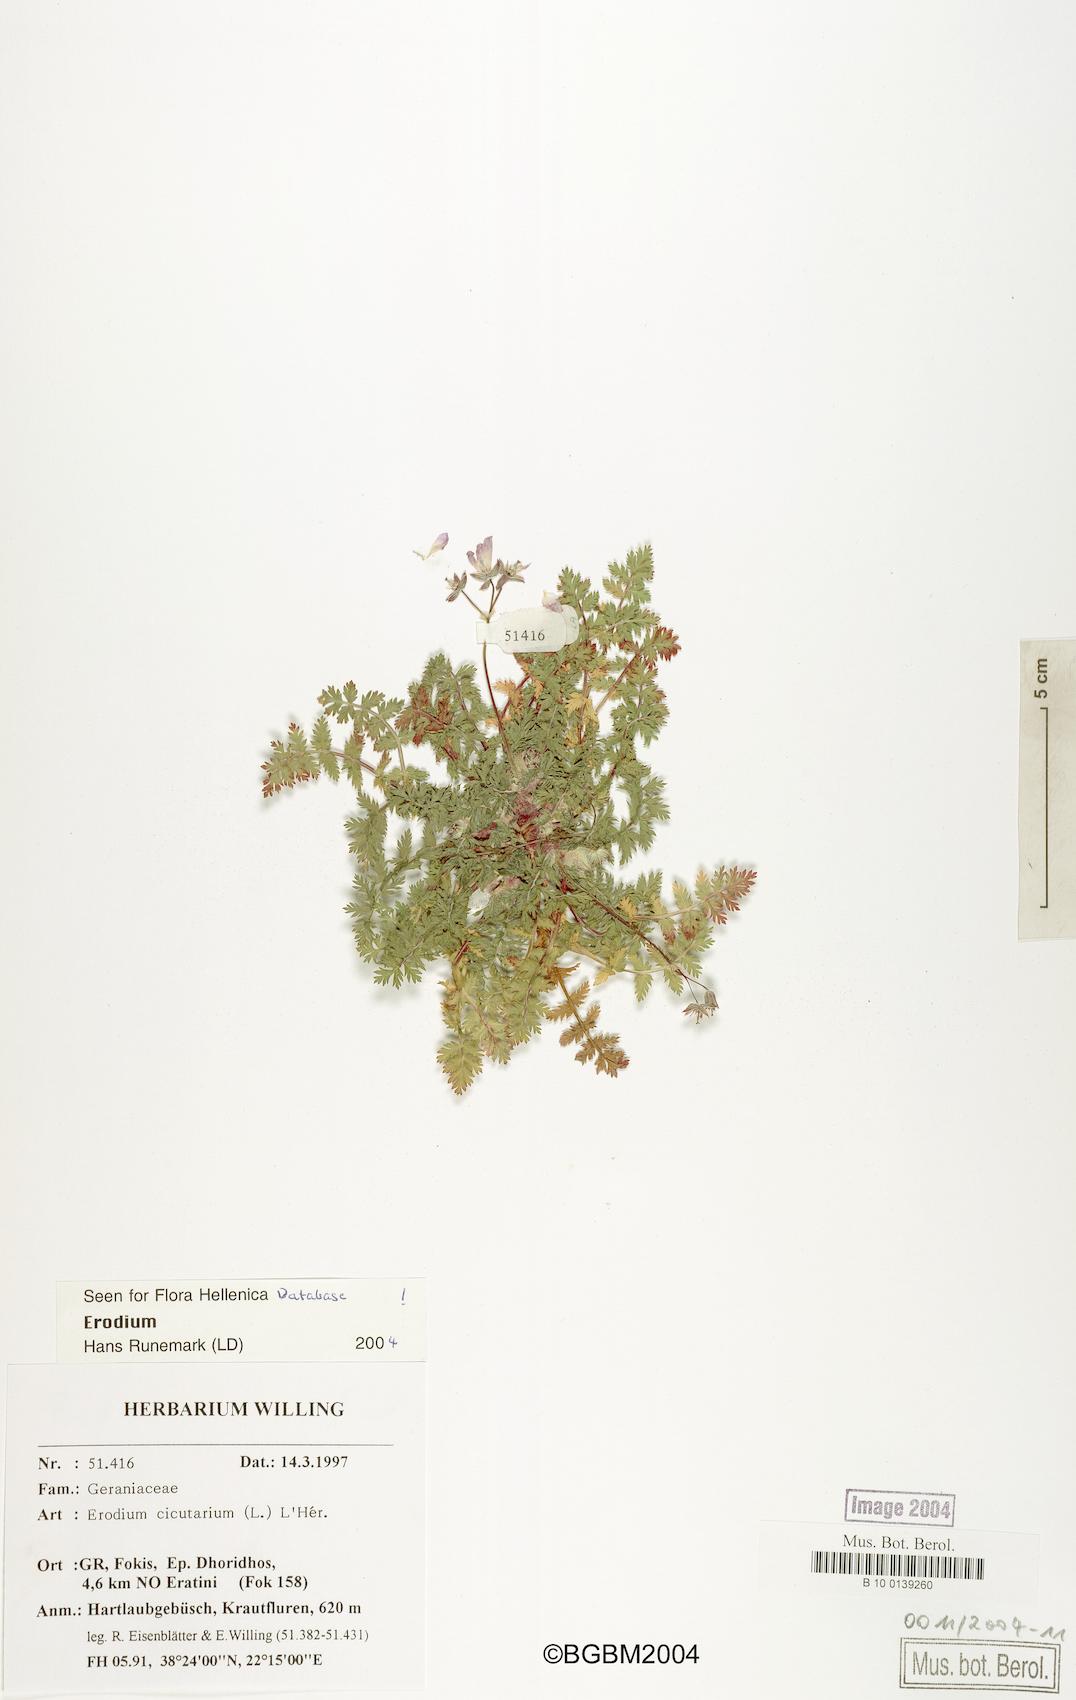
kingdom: Plantae
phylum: Tracheophyta
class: Magnoliopsida
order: Geraniales
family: Geraniaceae
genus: Erodium
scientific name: Erodium cicutarium
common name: Common stork's-bill
